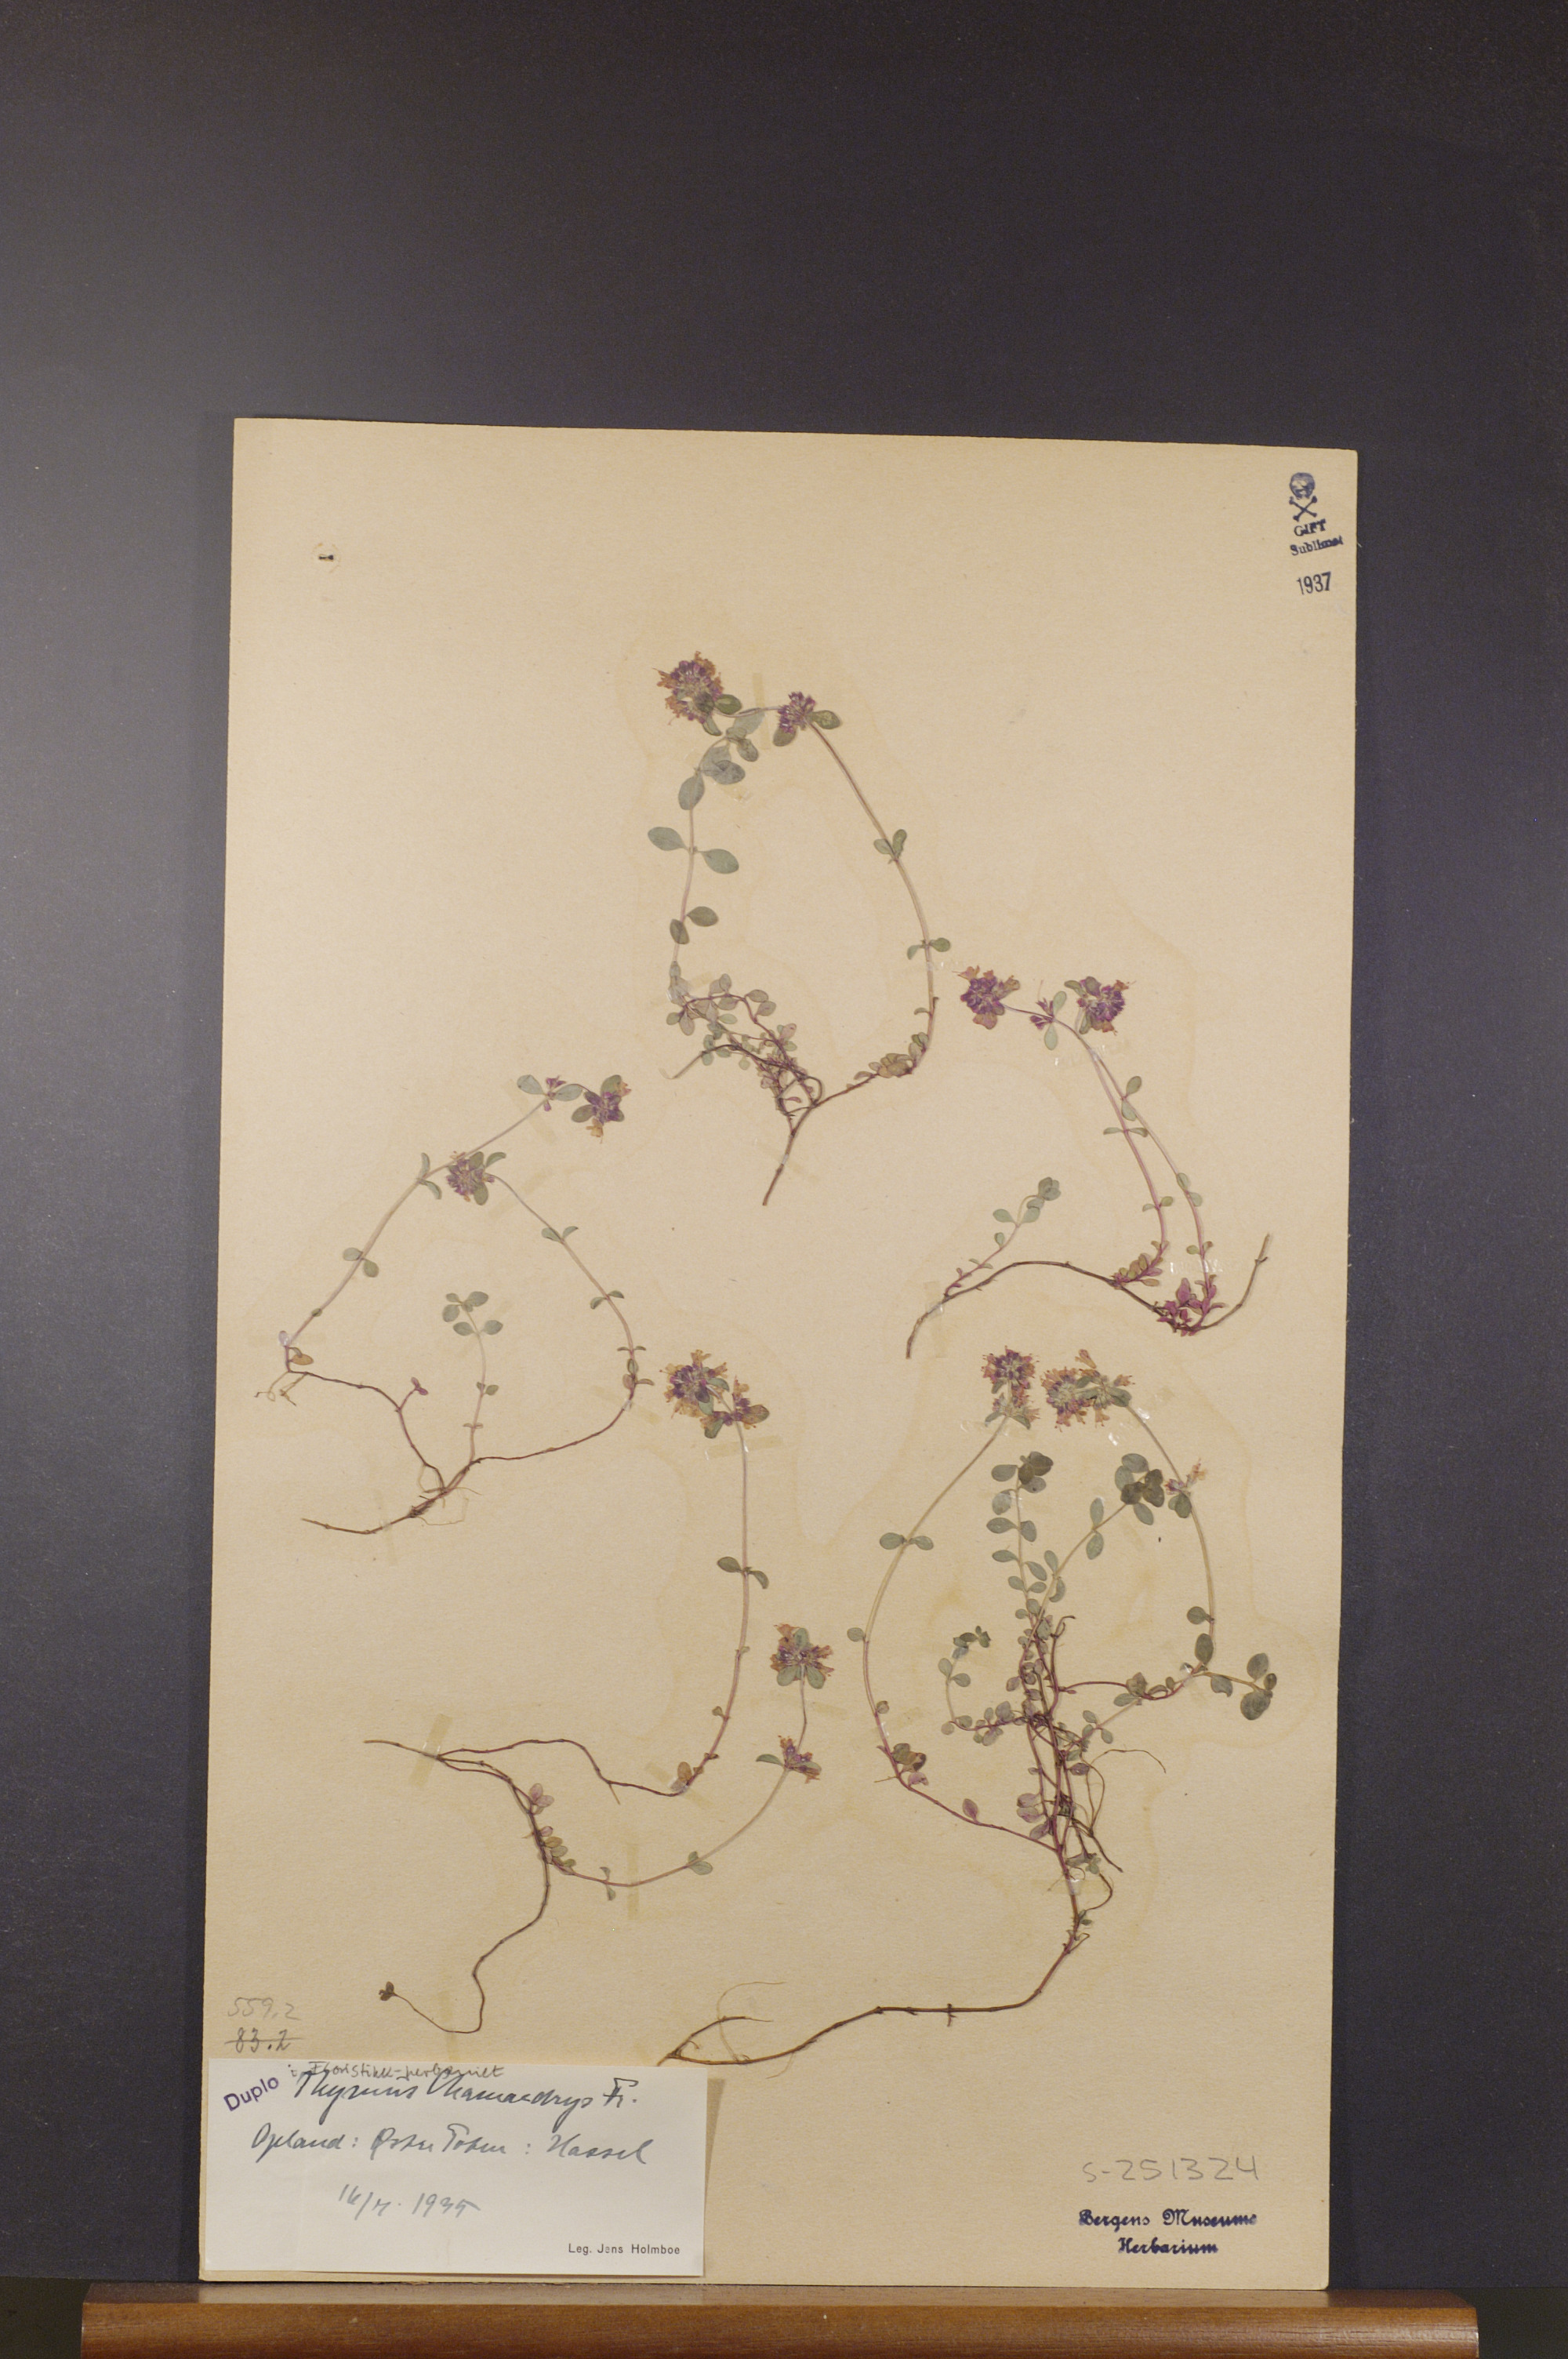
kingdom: Plantae
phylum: Tracheophyta
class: Magnoliopsida
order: Lamiales
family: Lamiaceae
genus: Thymus
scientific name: Thymus pulegioides
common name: Large thyme
